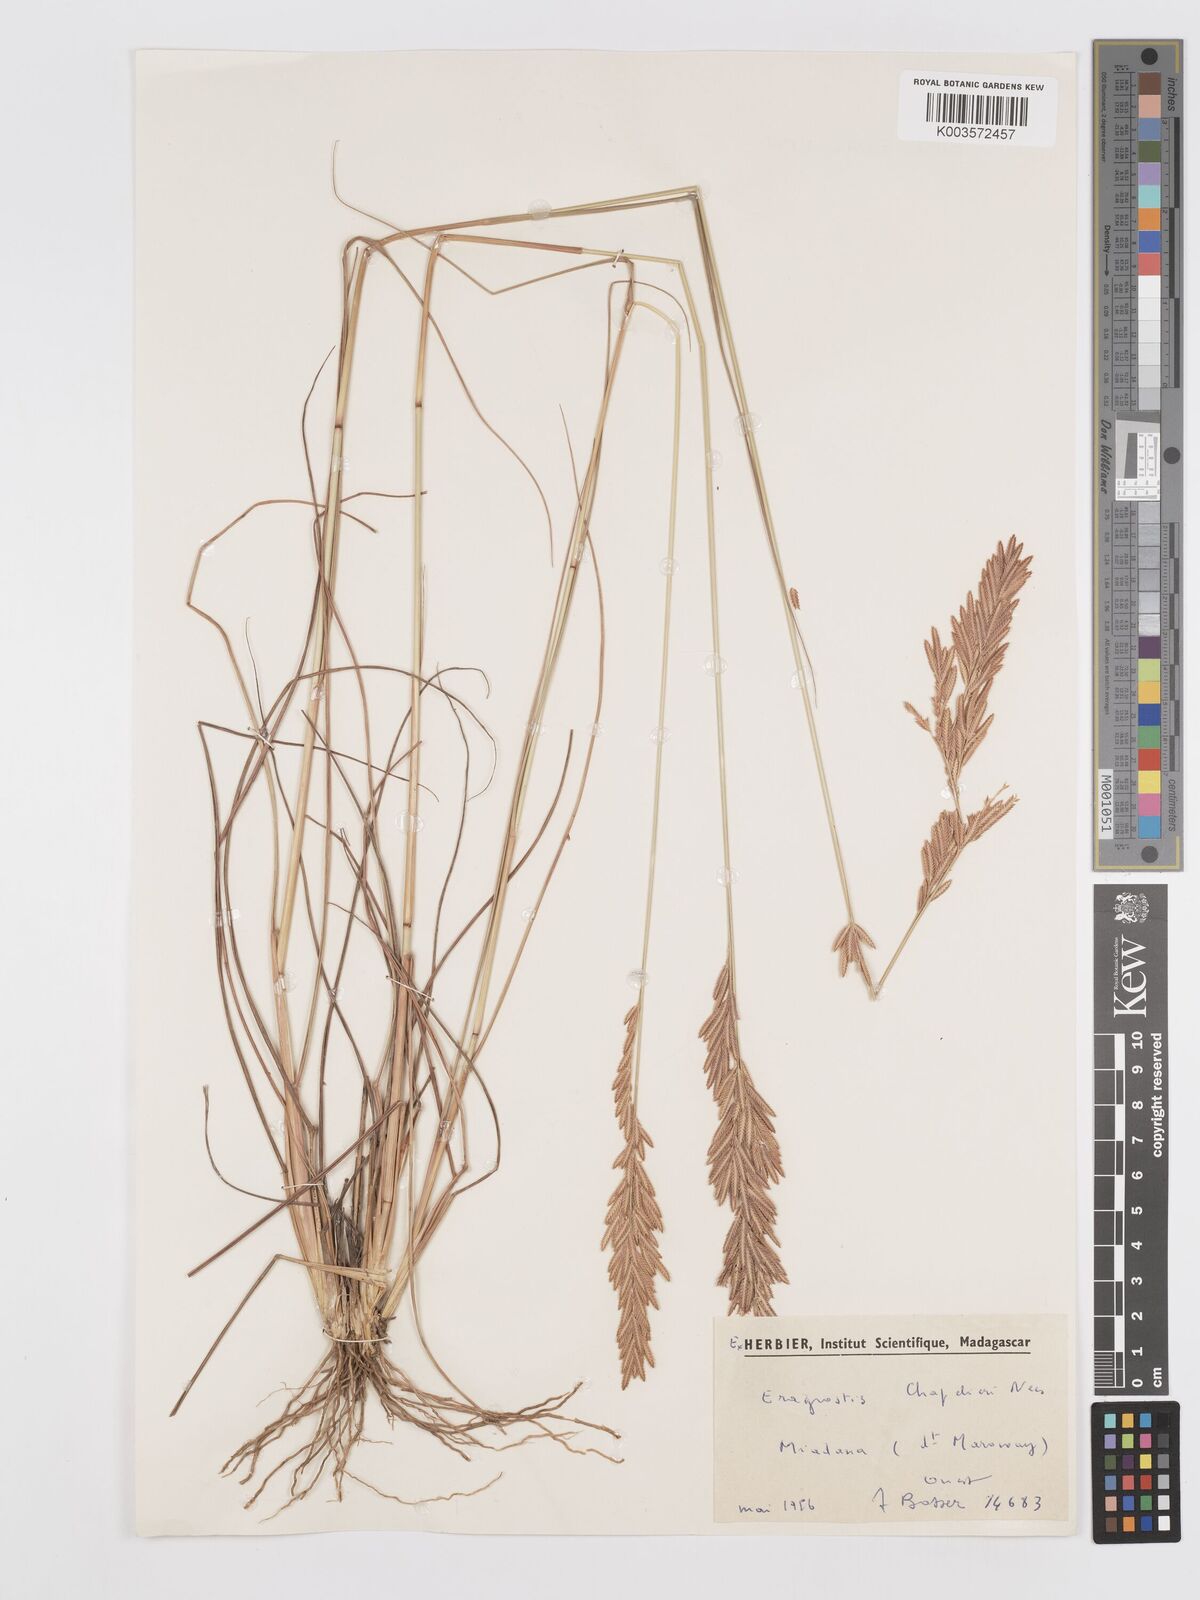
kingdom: Plantae
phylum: Tracheophyta
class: Liliopsida
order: Poales
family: Poaceae
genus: Eragrostis
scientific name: Eragrostis chapelieri
